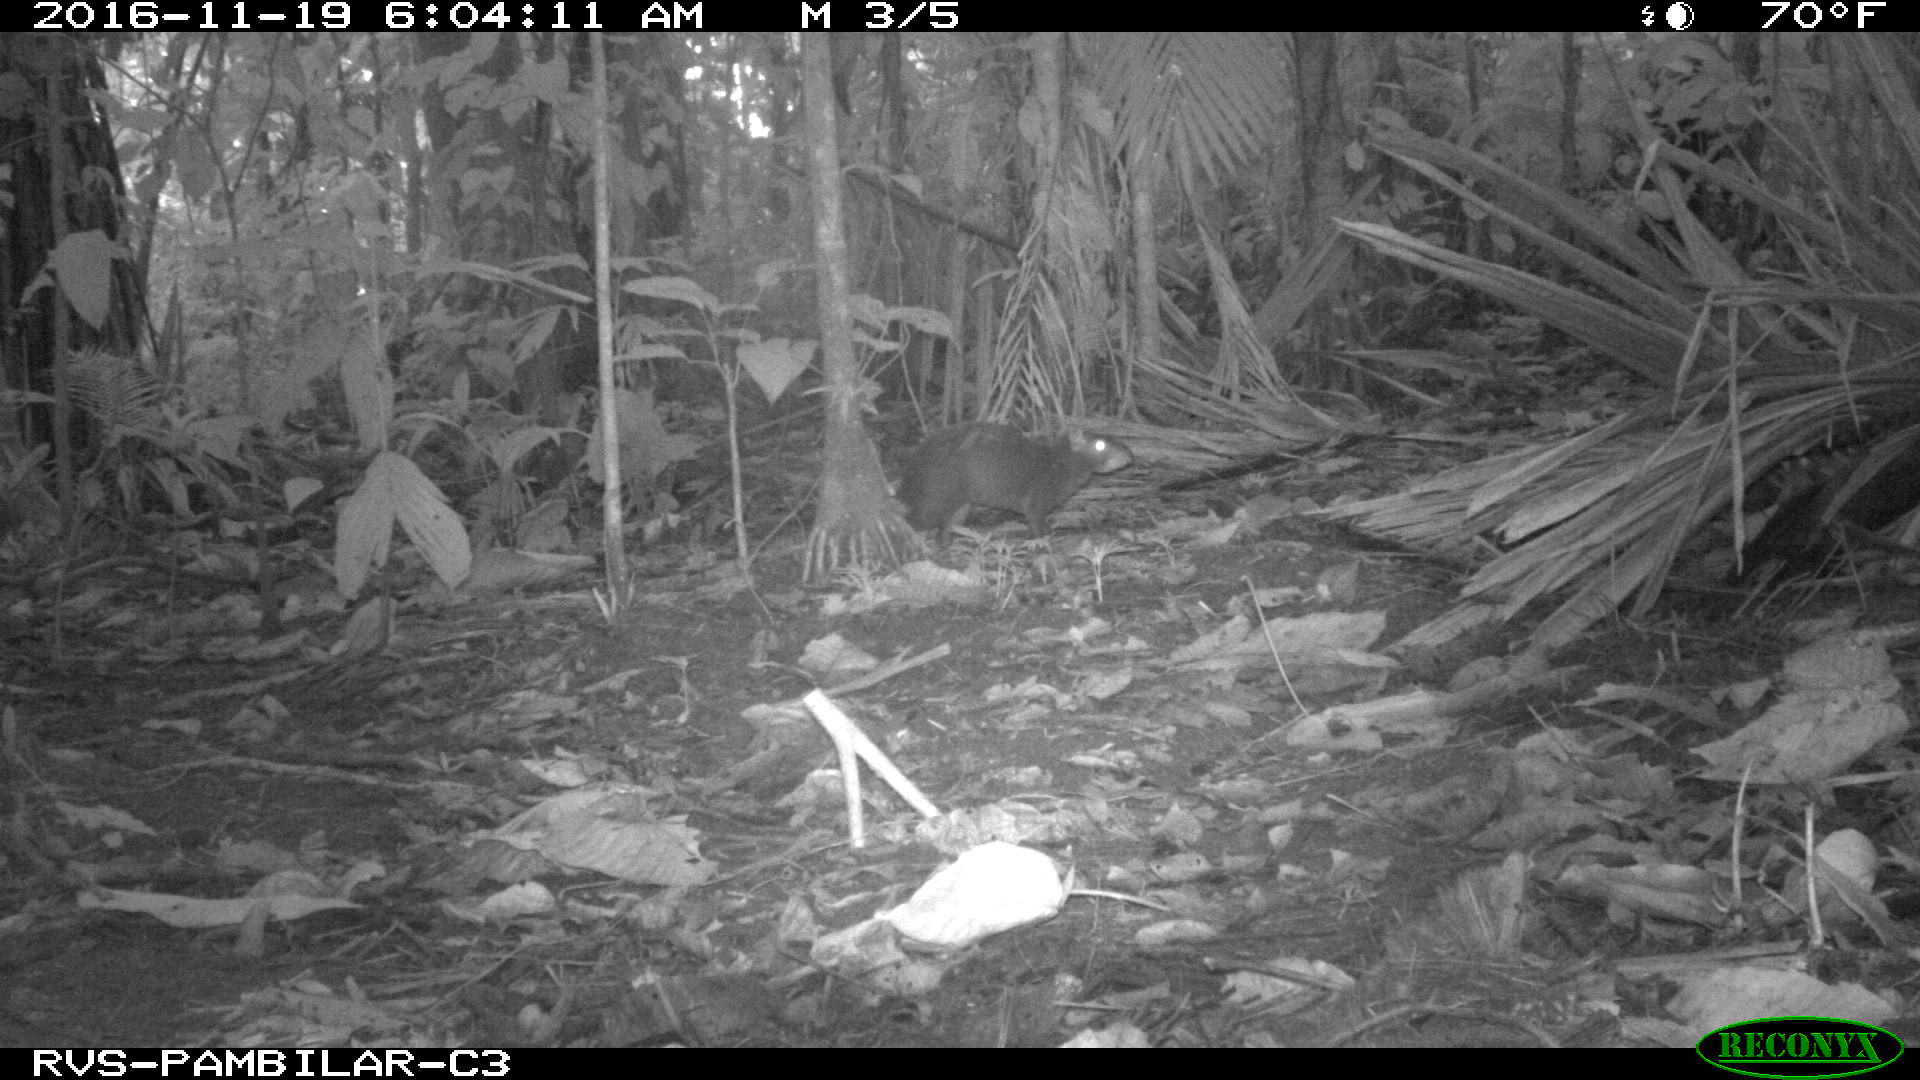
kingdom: Animalia
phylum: Chordata
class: Mammalia
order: Rodentia
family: Dasyproctidae
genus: Dasyprocta
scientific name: Dasyprocta punctata
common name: Central american agouti
